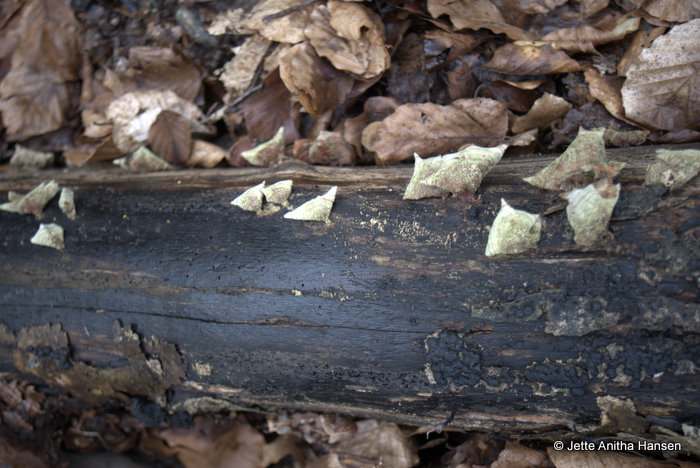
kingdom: Fungi
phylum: Basidiomycota
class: Agaricomycetes
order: Russulales
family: Stereaceae
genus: Stereum
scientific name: Stereum subtomentosum
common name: smuk lædersvamp
